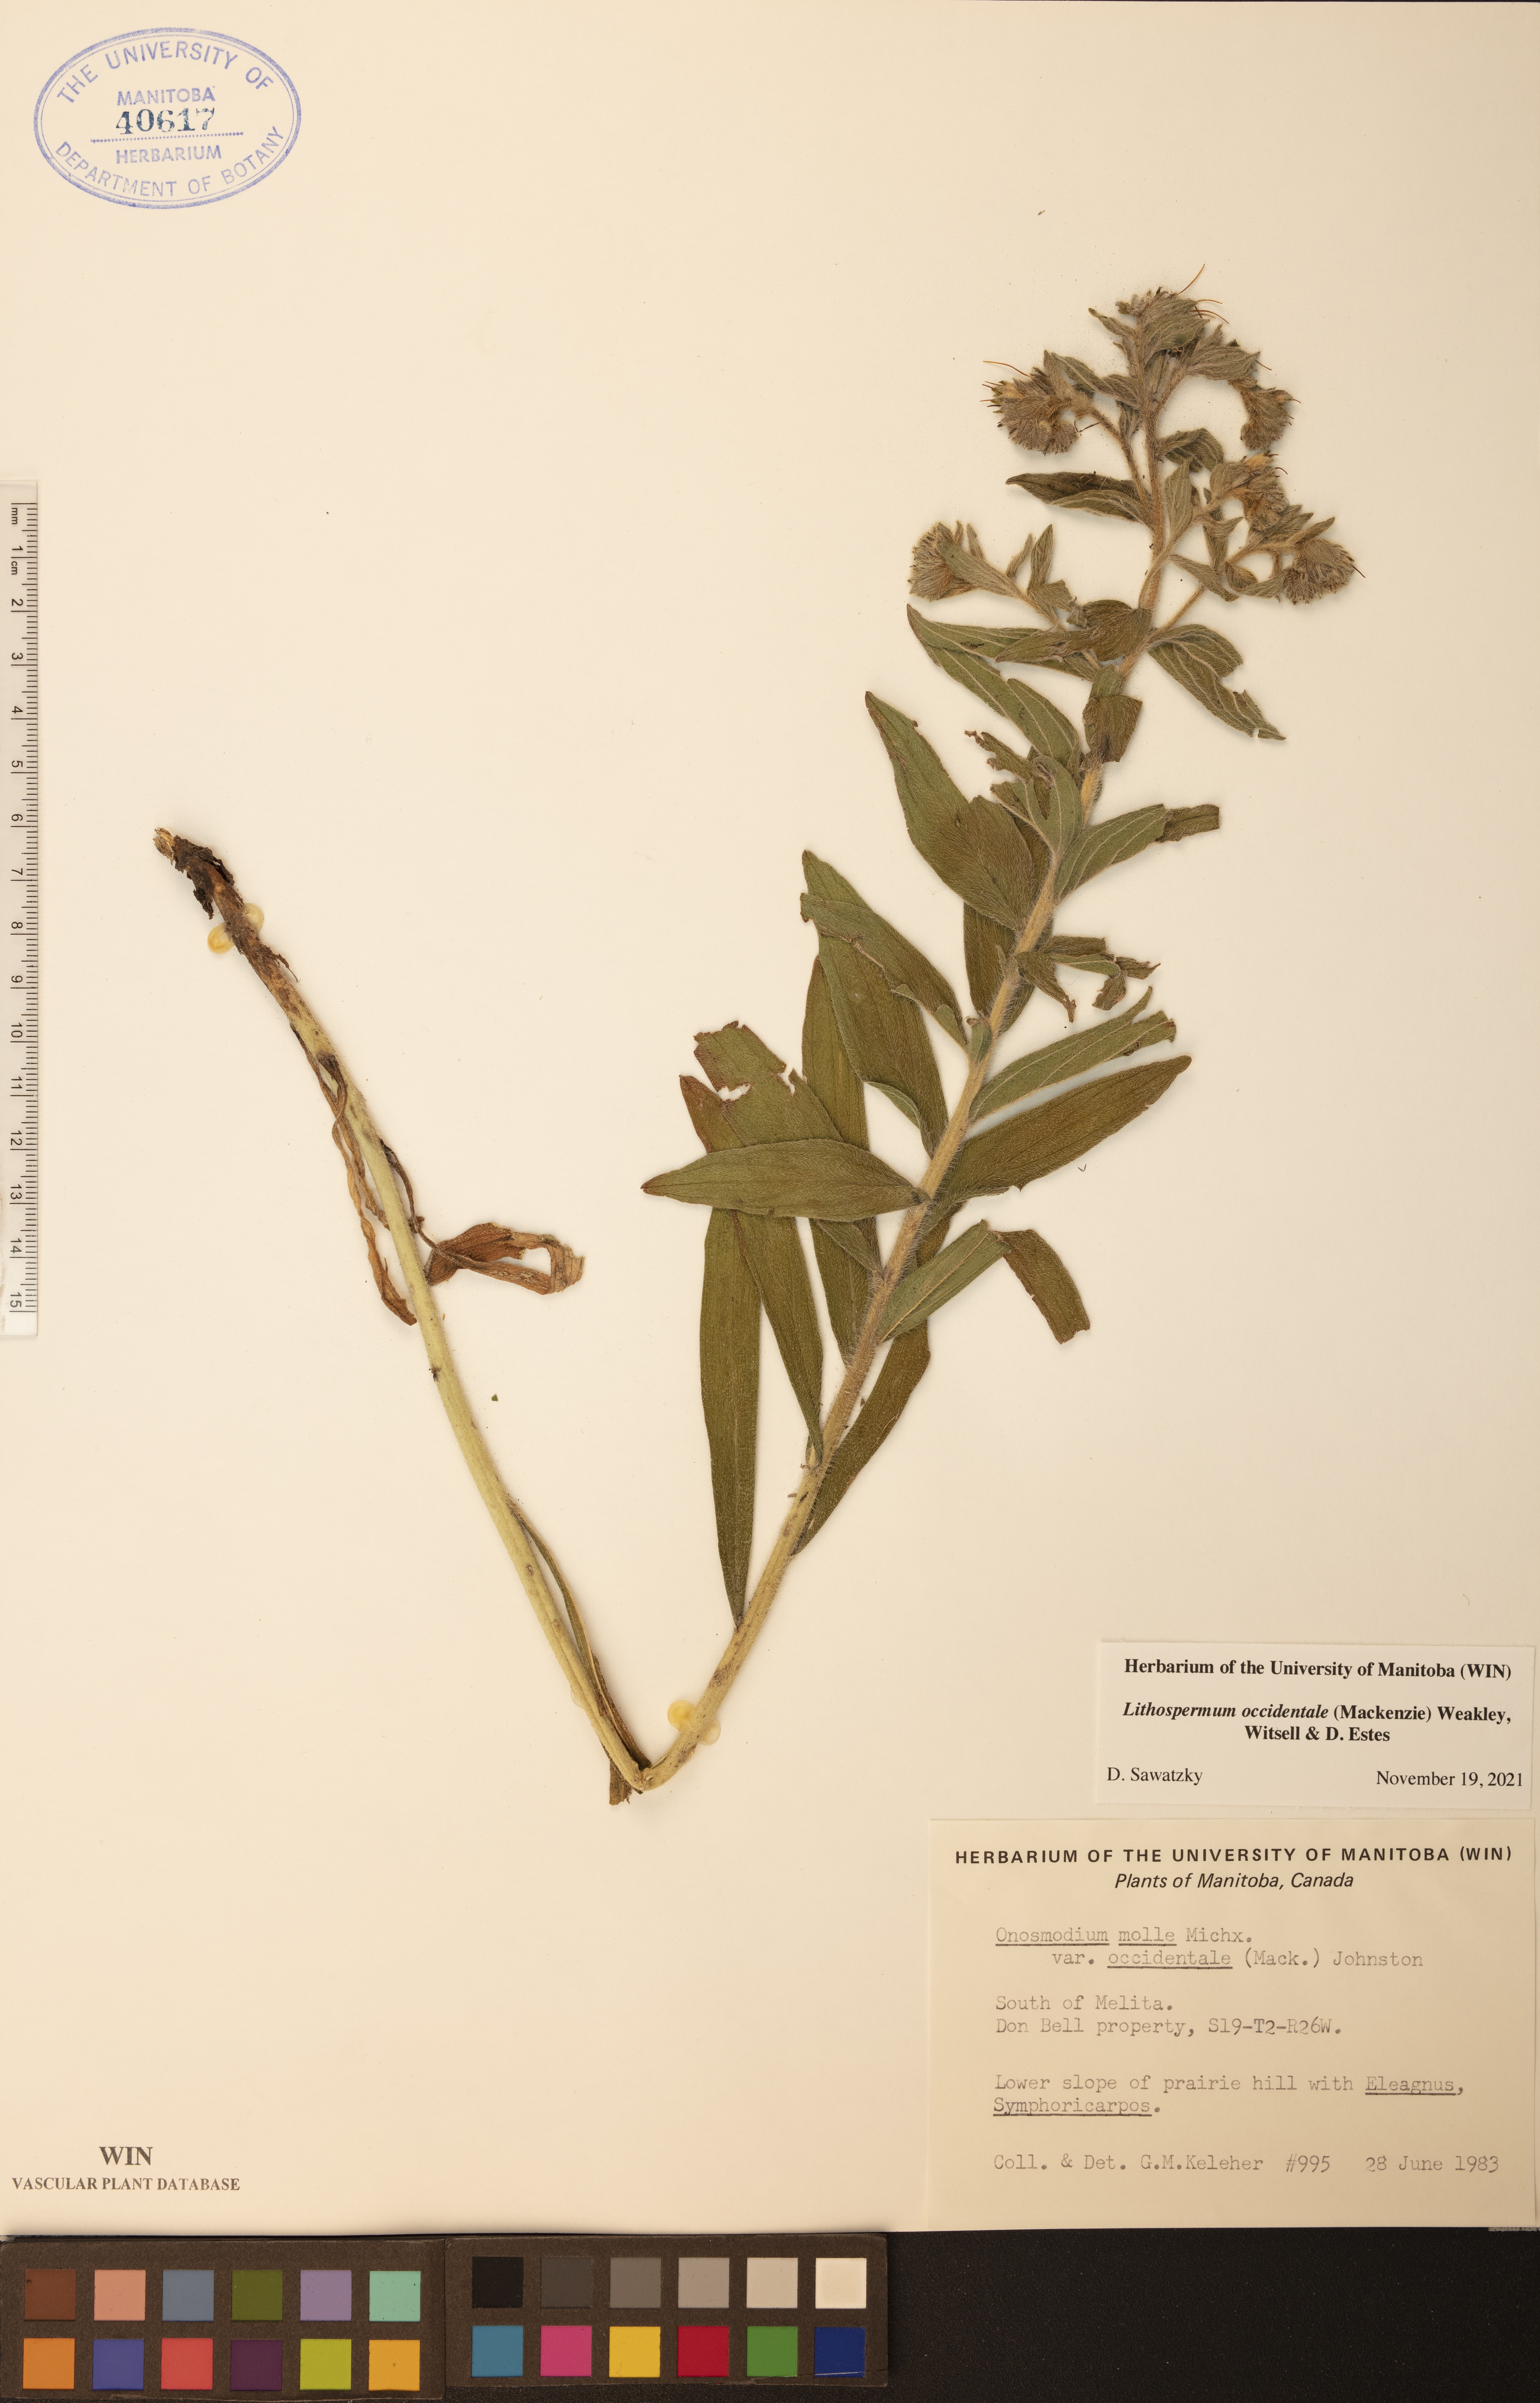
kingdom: Plantae
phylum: Tracheophyta
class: Magnoliopsida
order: Boraginales
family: Boraginaceae
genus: Lithospermum
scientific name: Lithospermum occidentale
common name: Western false gromwell
